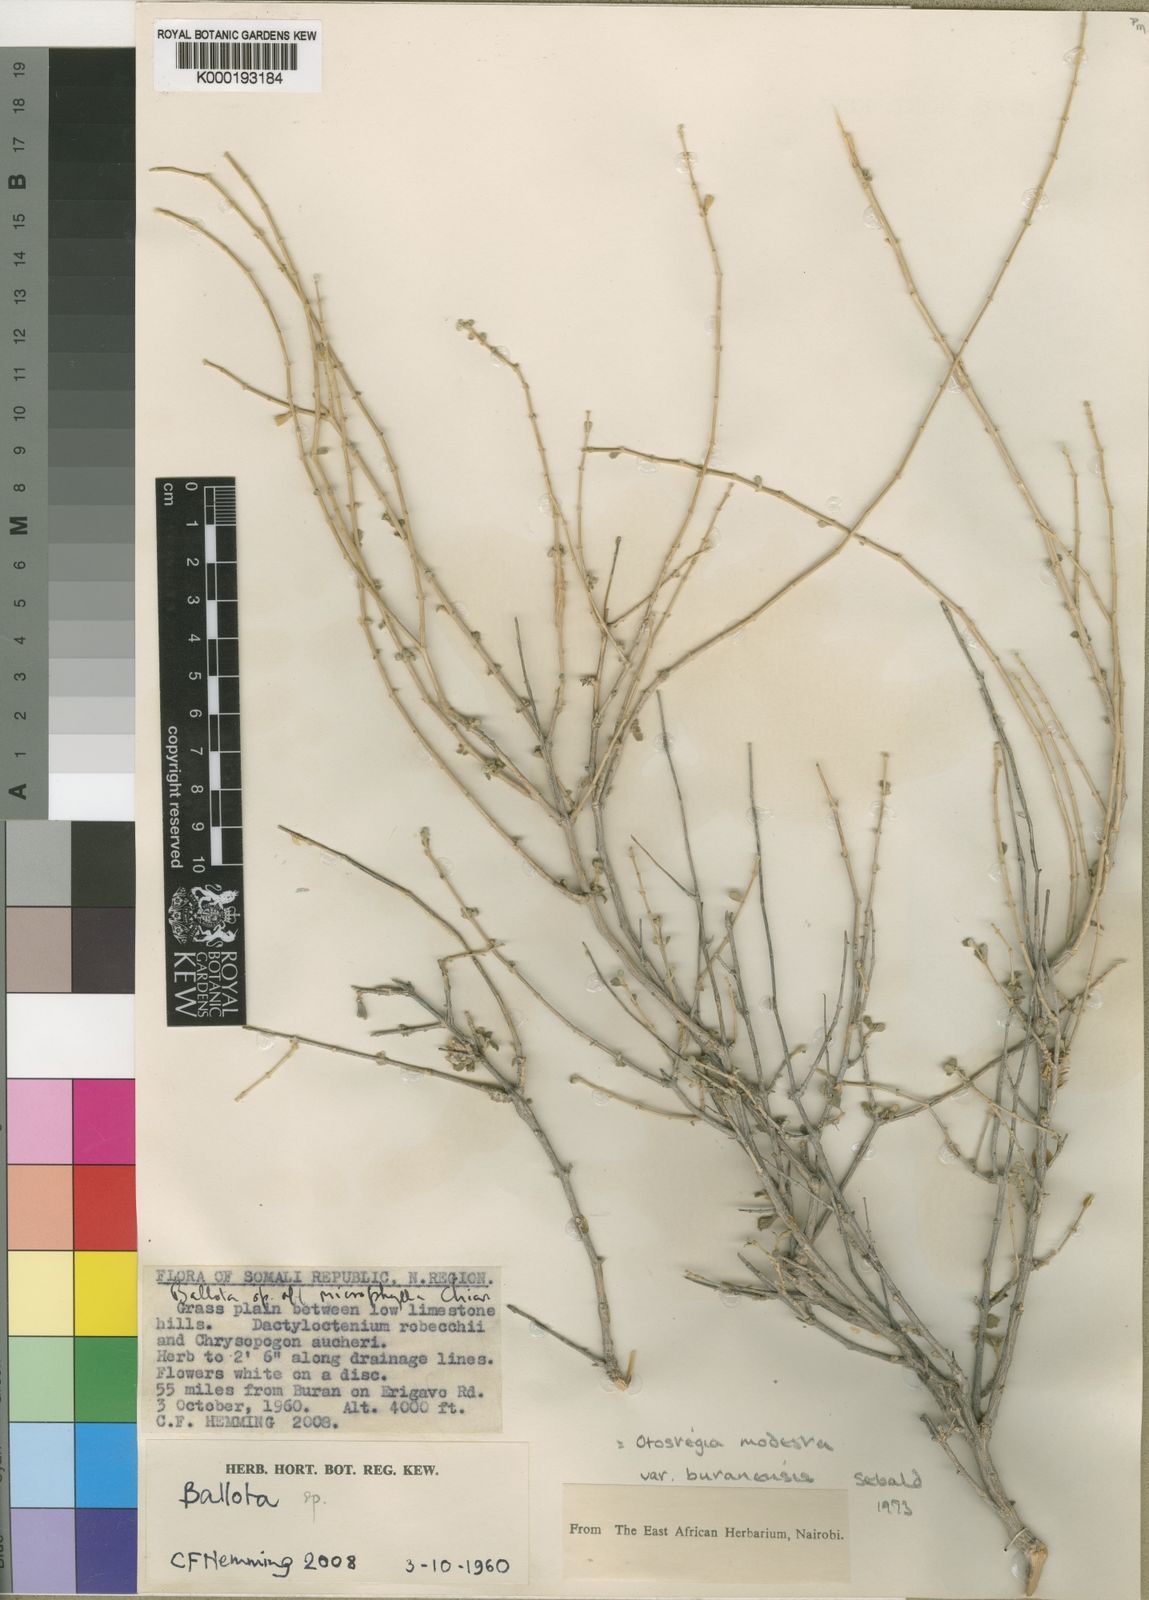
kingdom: Plantae
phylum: Tracheophyta
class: Magnoliopsida
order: Lamiales
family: Lamiaceae
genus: Otostegia
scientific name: Otostegia modesta
